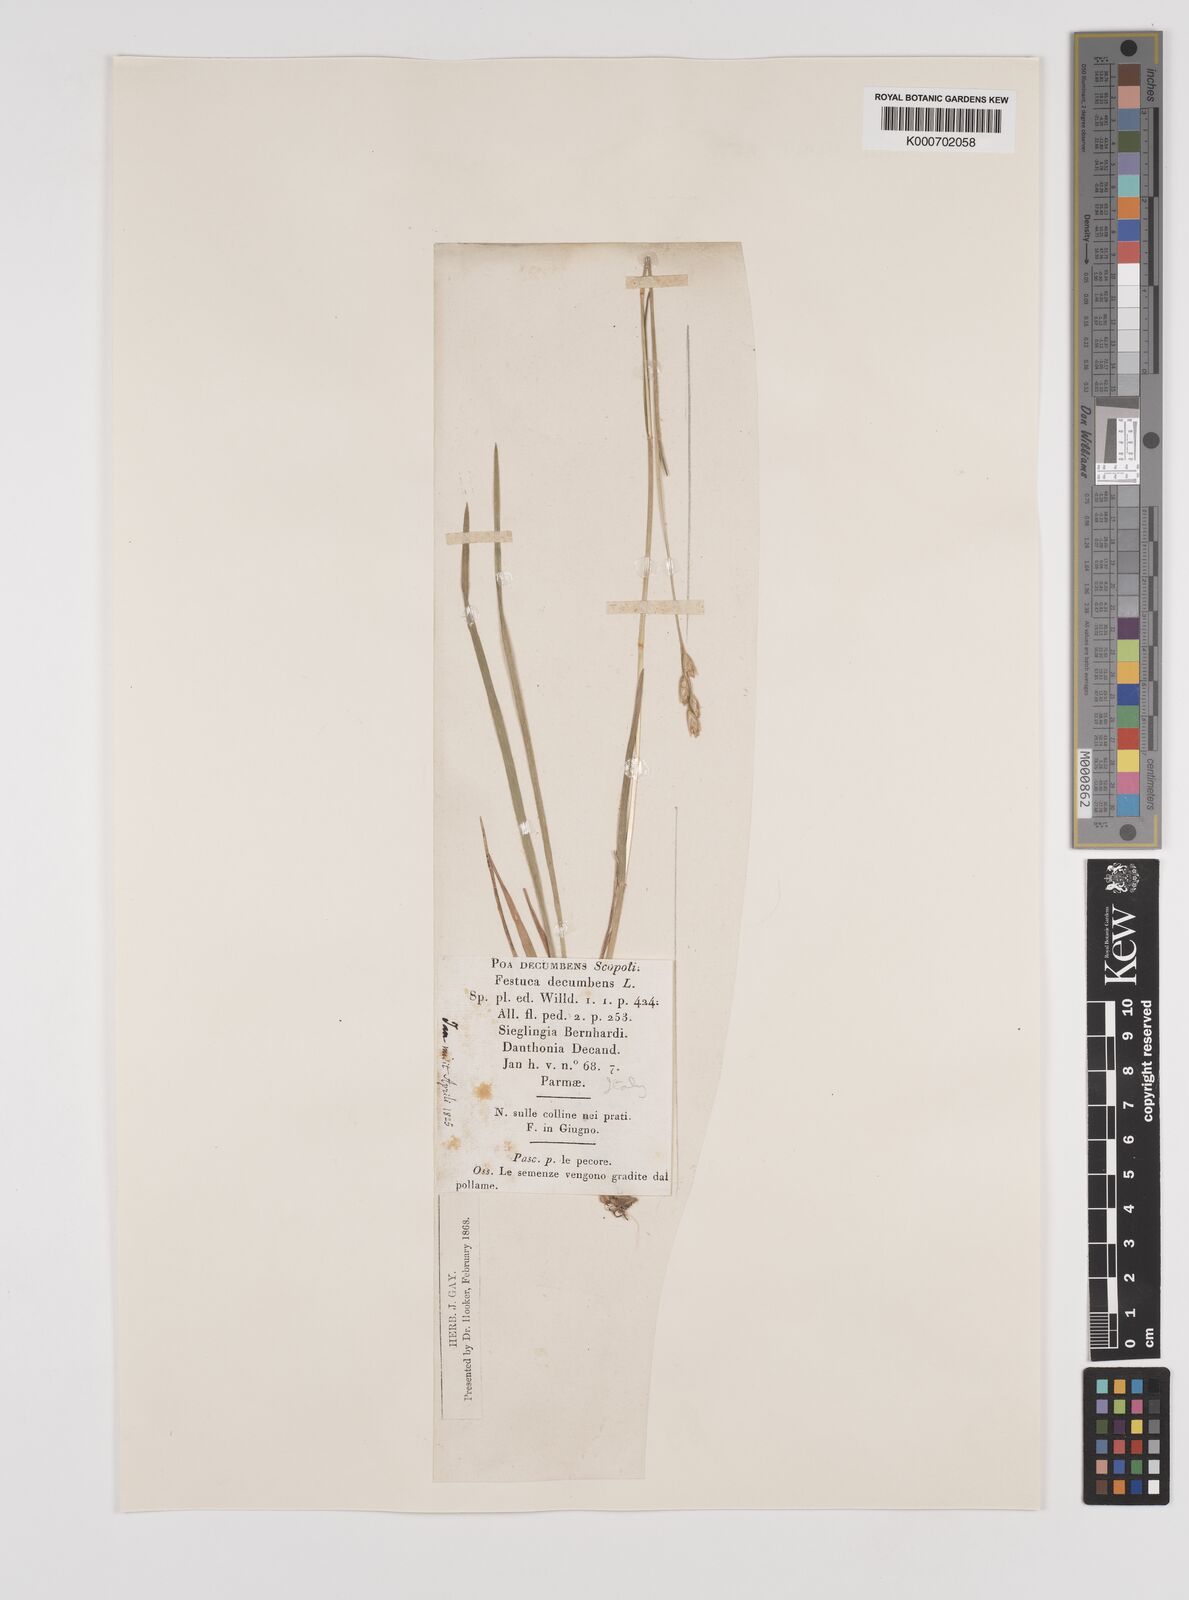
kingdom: Plantae
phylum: Tracheophyta
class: Liliopsida
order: Poales
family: Poaceae
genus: Danthonia
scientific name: Danthonia decumbens
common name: Common heathgrass
